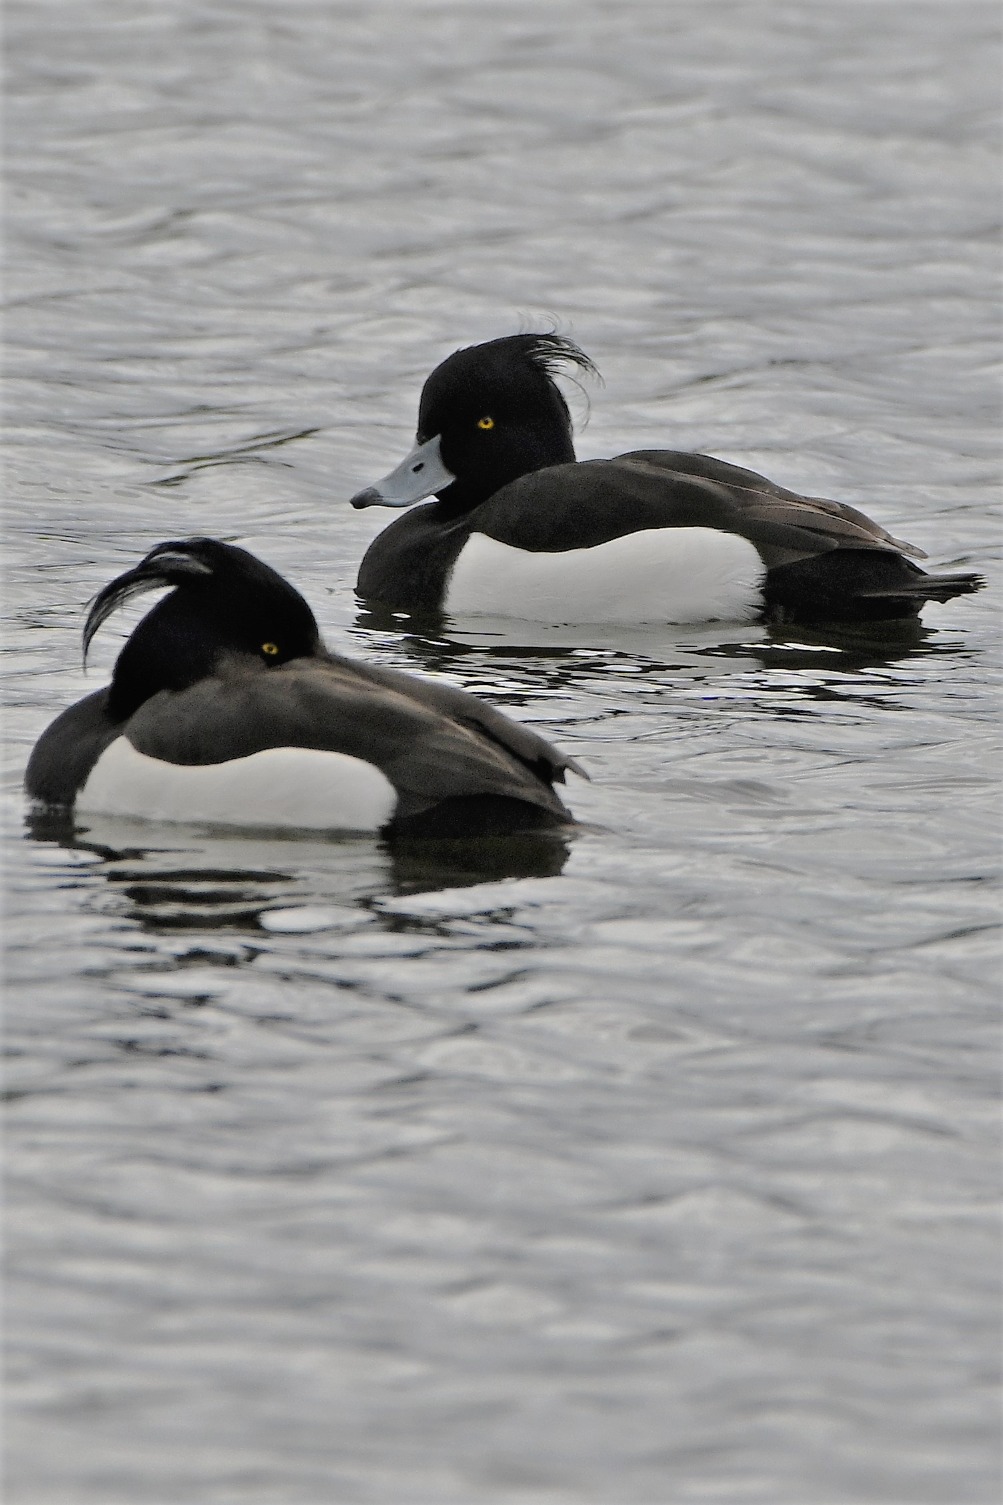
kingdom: Animalia
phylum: Chordata
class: Aves
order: Anseriformes
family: Anatidae
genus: Aythya
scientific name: Aythya fuligula
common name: Troldand
